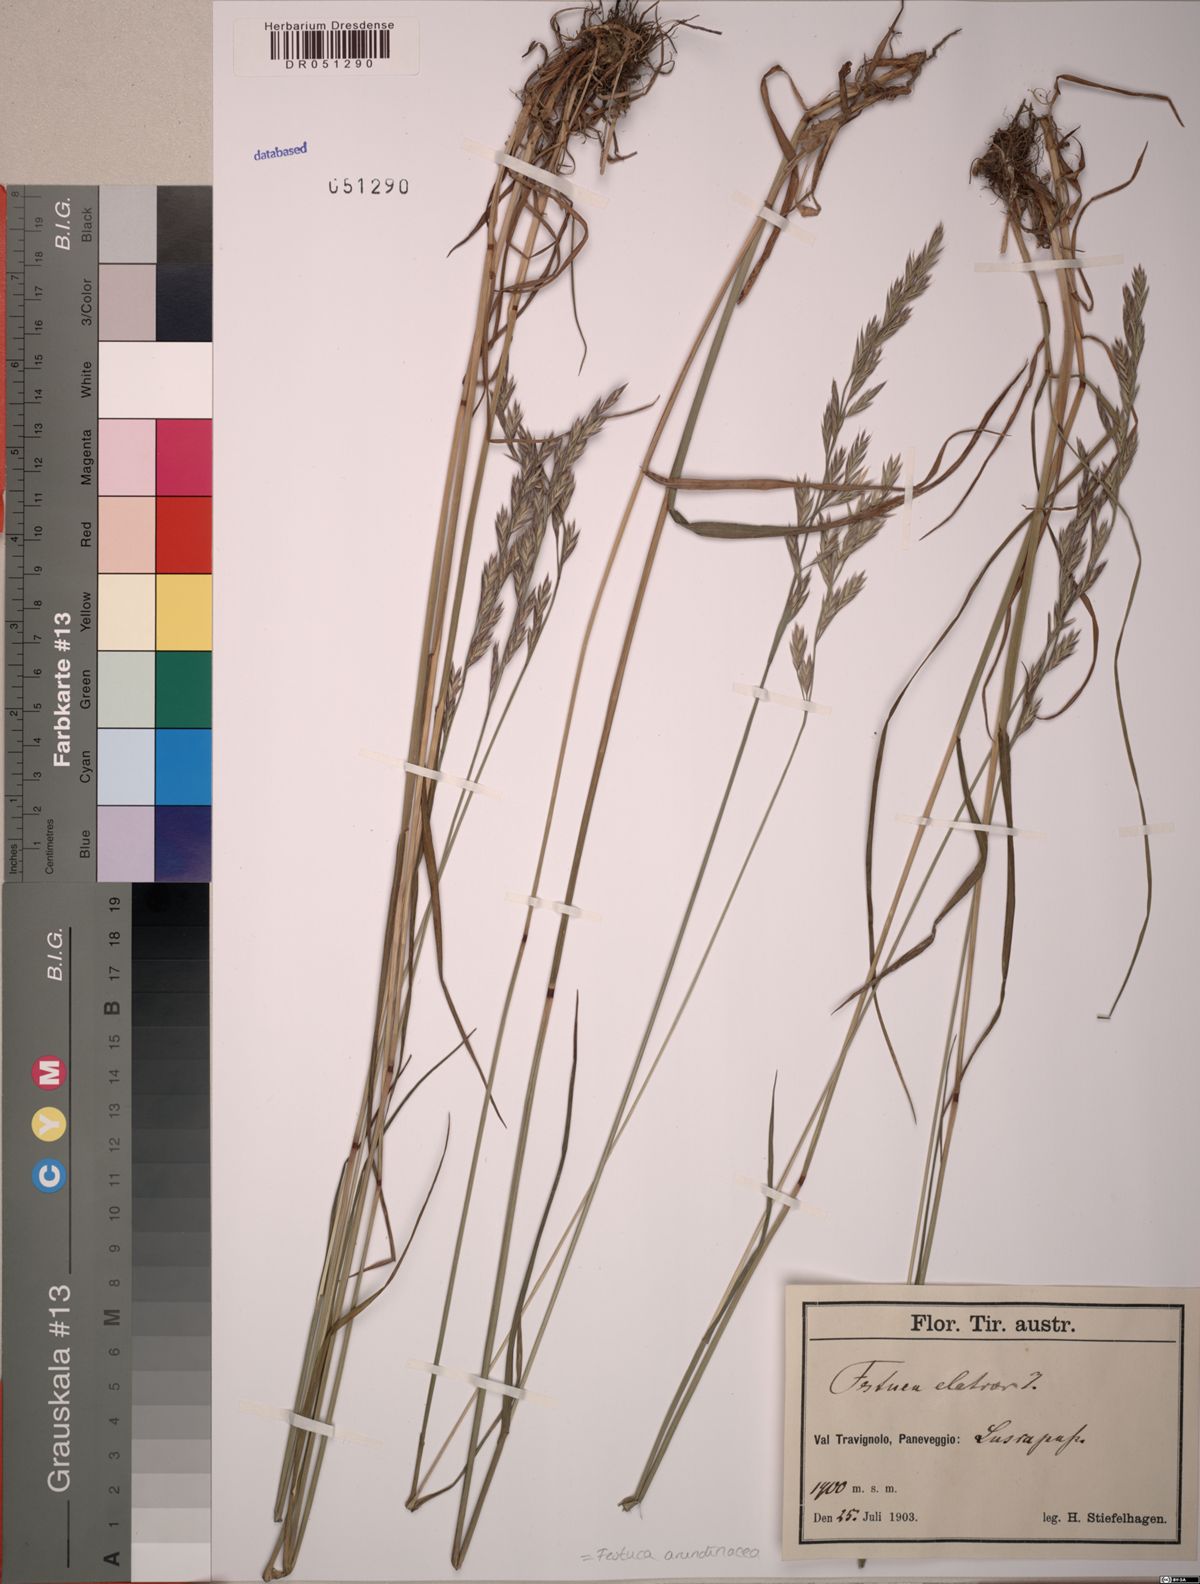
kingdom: Plantae
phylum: Tracheophyta
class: Liliopsida
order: Poales
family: Poaceae
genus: Lolium
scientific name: Lolium arundinaceum
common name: Reed fescue
